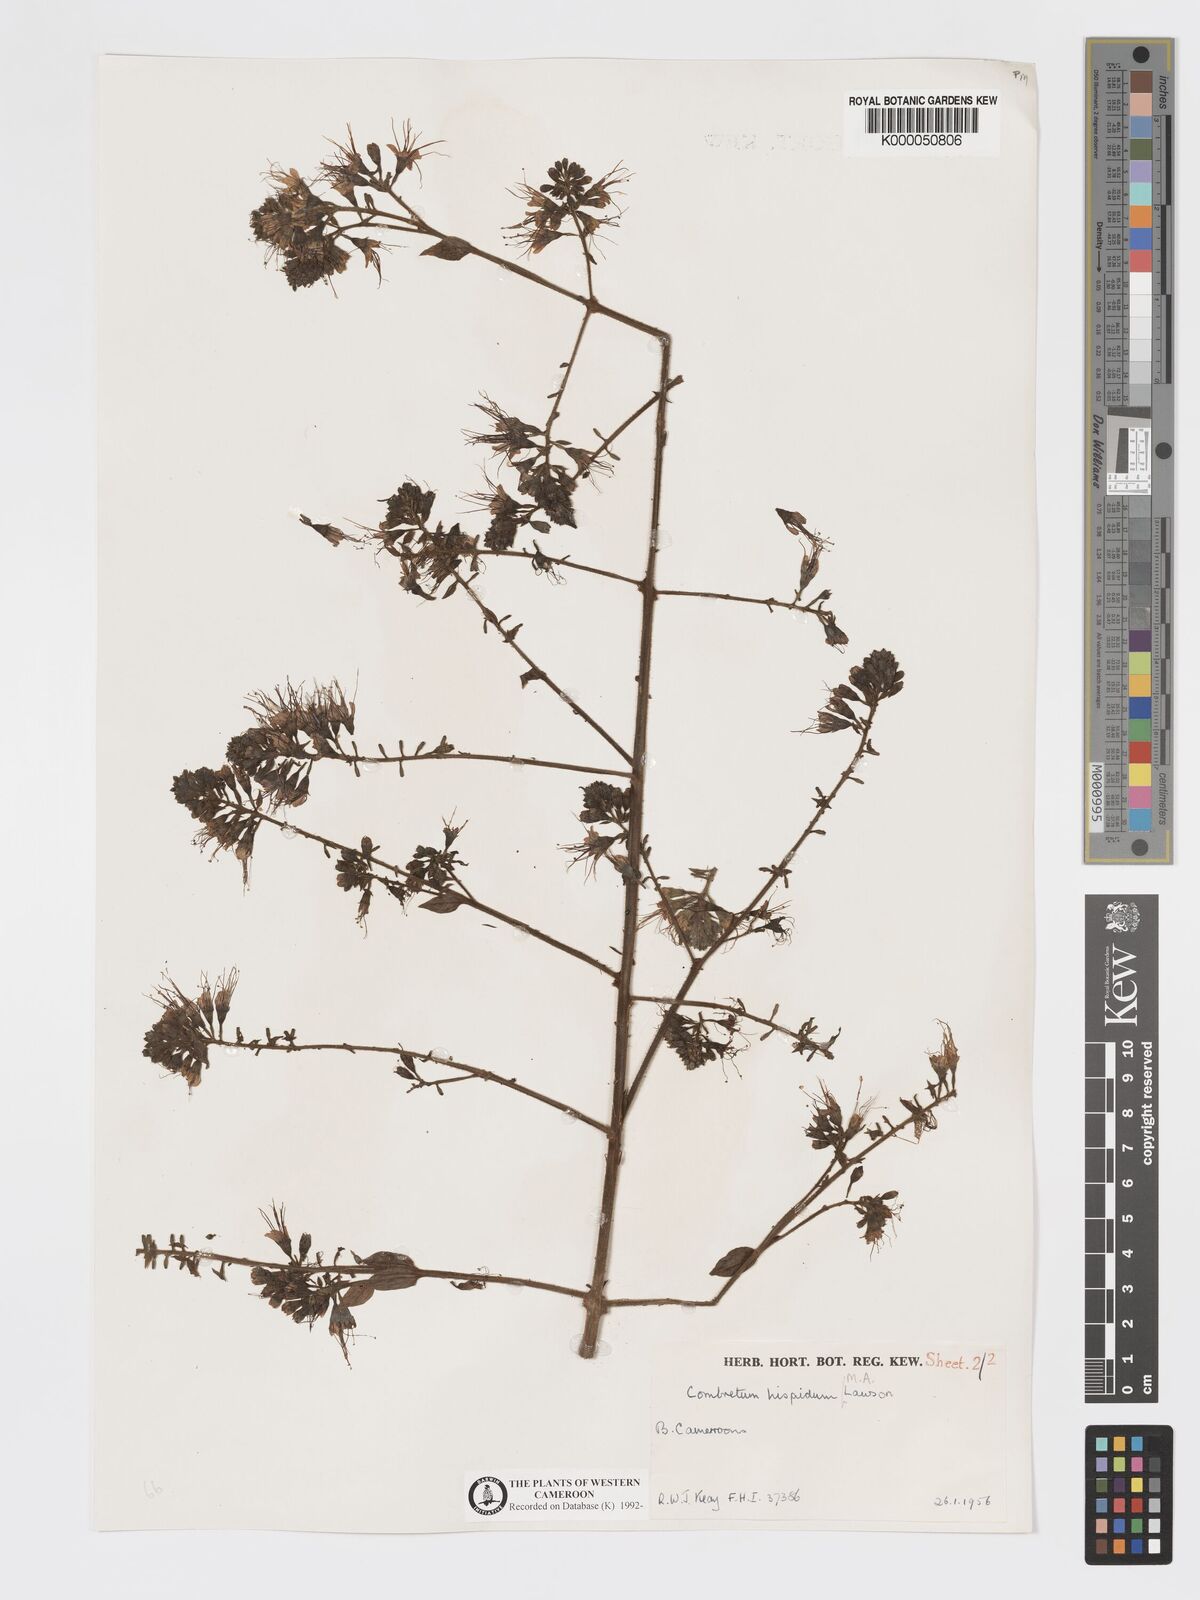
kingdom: Plantae
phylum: Tracheophyta
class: Magnoliopsida
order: Myrtales
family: Combretaceae
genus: Combretum
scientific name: Combretum
